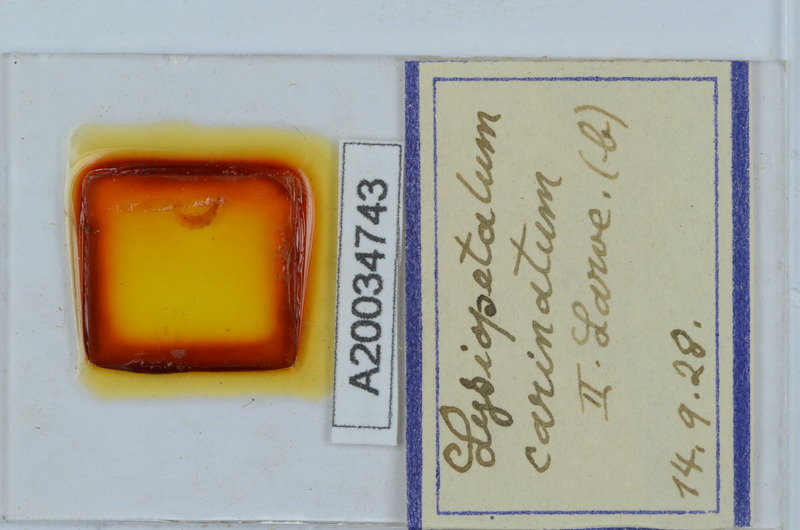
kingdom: Animalia
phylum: Arthropoda
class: Diplopoda
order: Callipodida
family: Schizopetalidae
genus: Acanthopetalum
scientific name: Acanthopetalum carinatum
